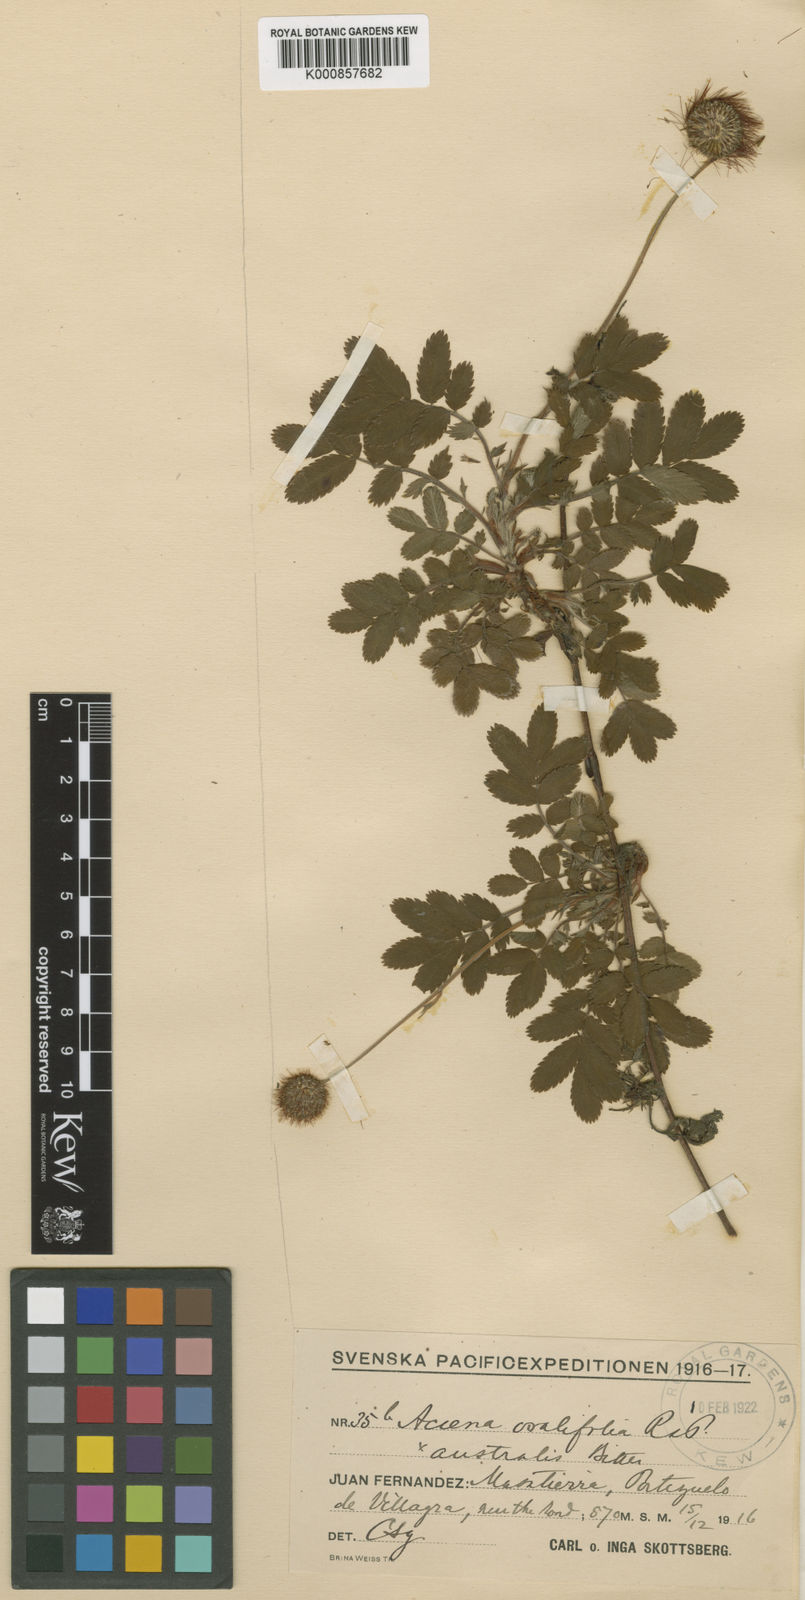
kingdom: Plantae
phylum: Tracheophyta
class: Magnoliopsida
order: Rosales
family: Rosaceae
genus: Acaena
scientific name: Acaena ovalifolia
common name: Two-spined acaena
